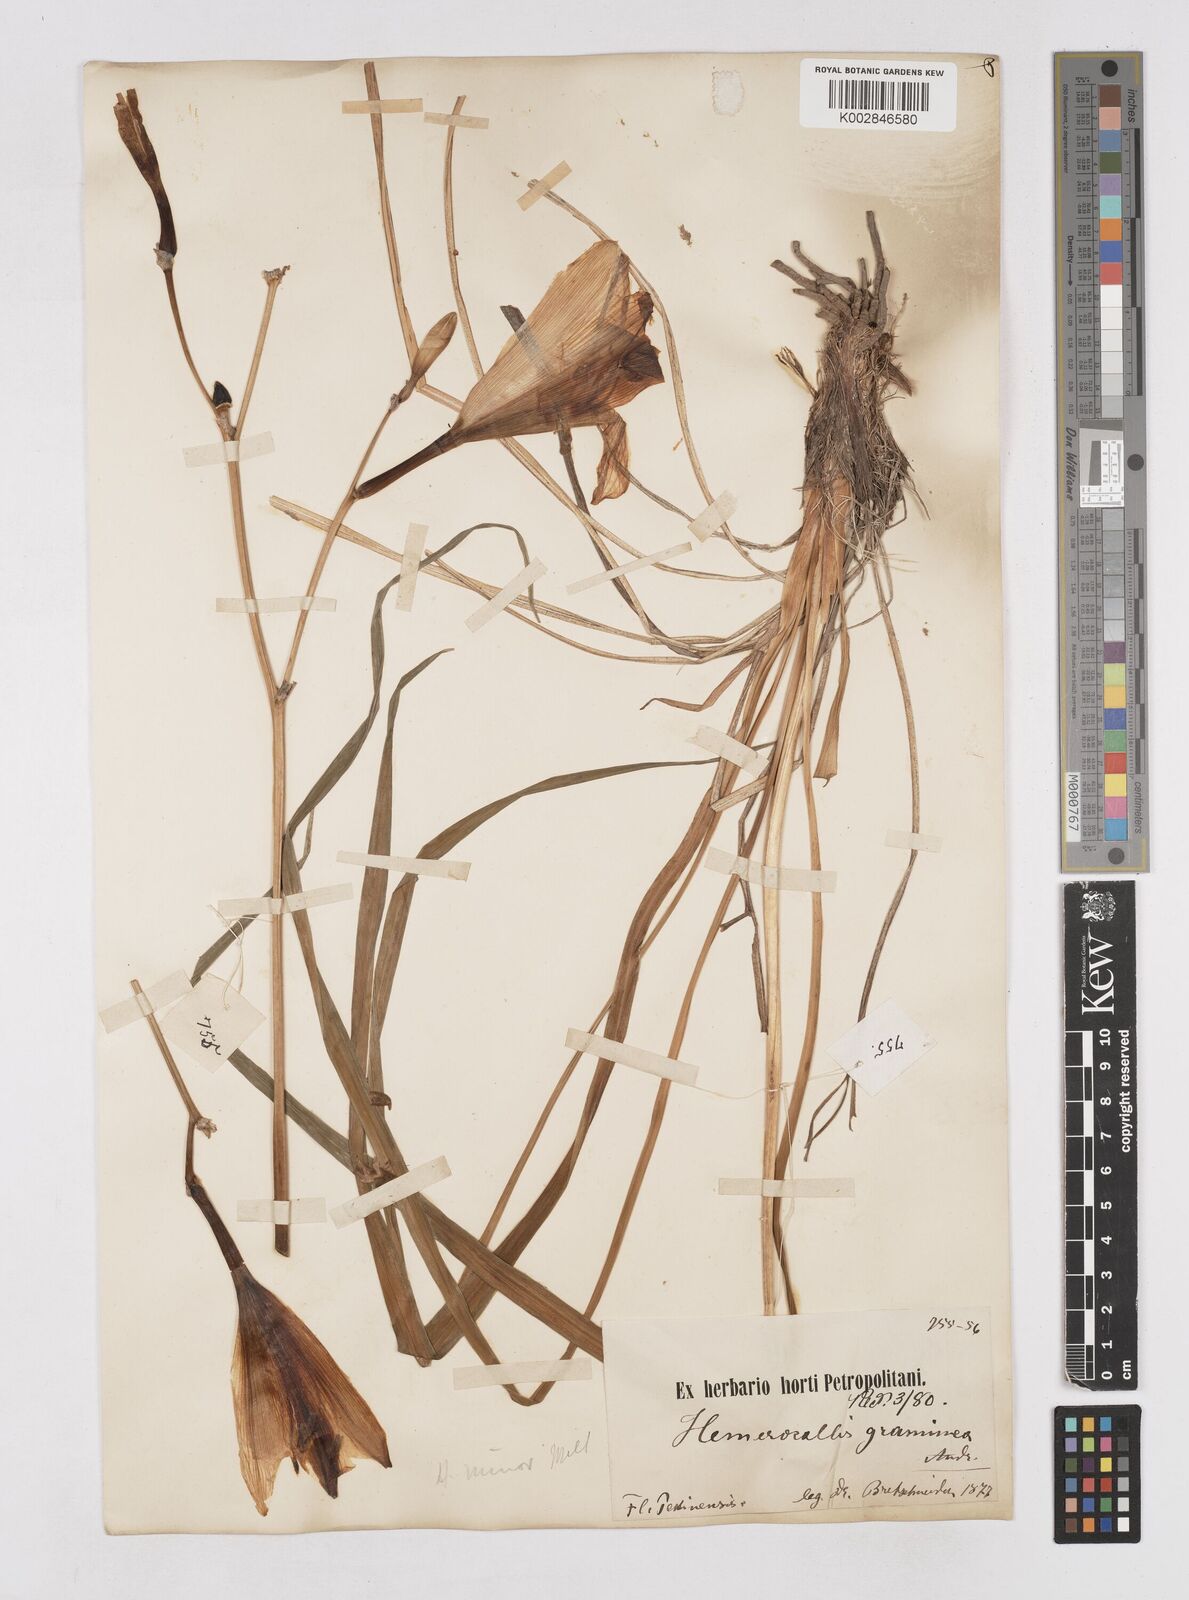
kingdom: Plantae
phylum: Tracheophyta
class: Liliopsida
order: Asparagales
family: Asphodelaceae
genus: Hemerocallis
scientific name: Hemerocallis minor
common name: Small daylily
